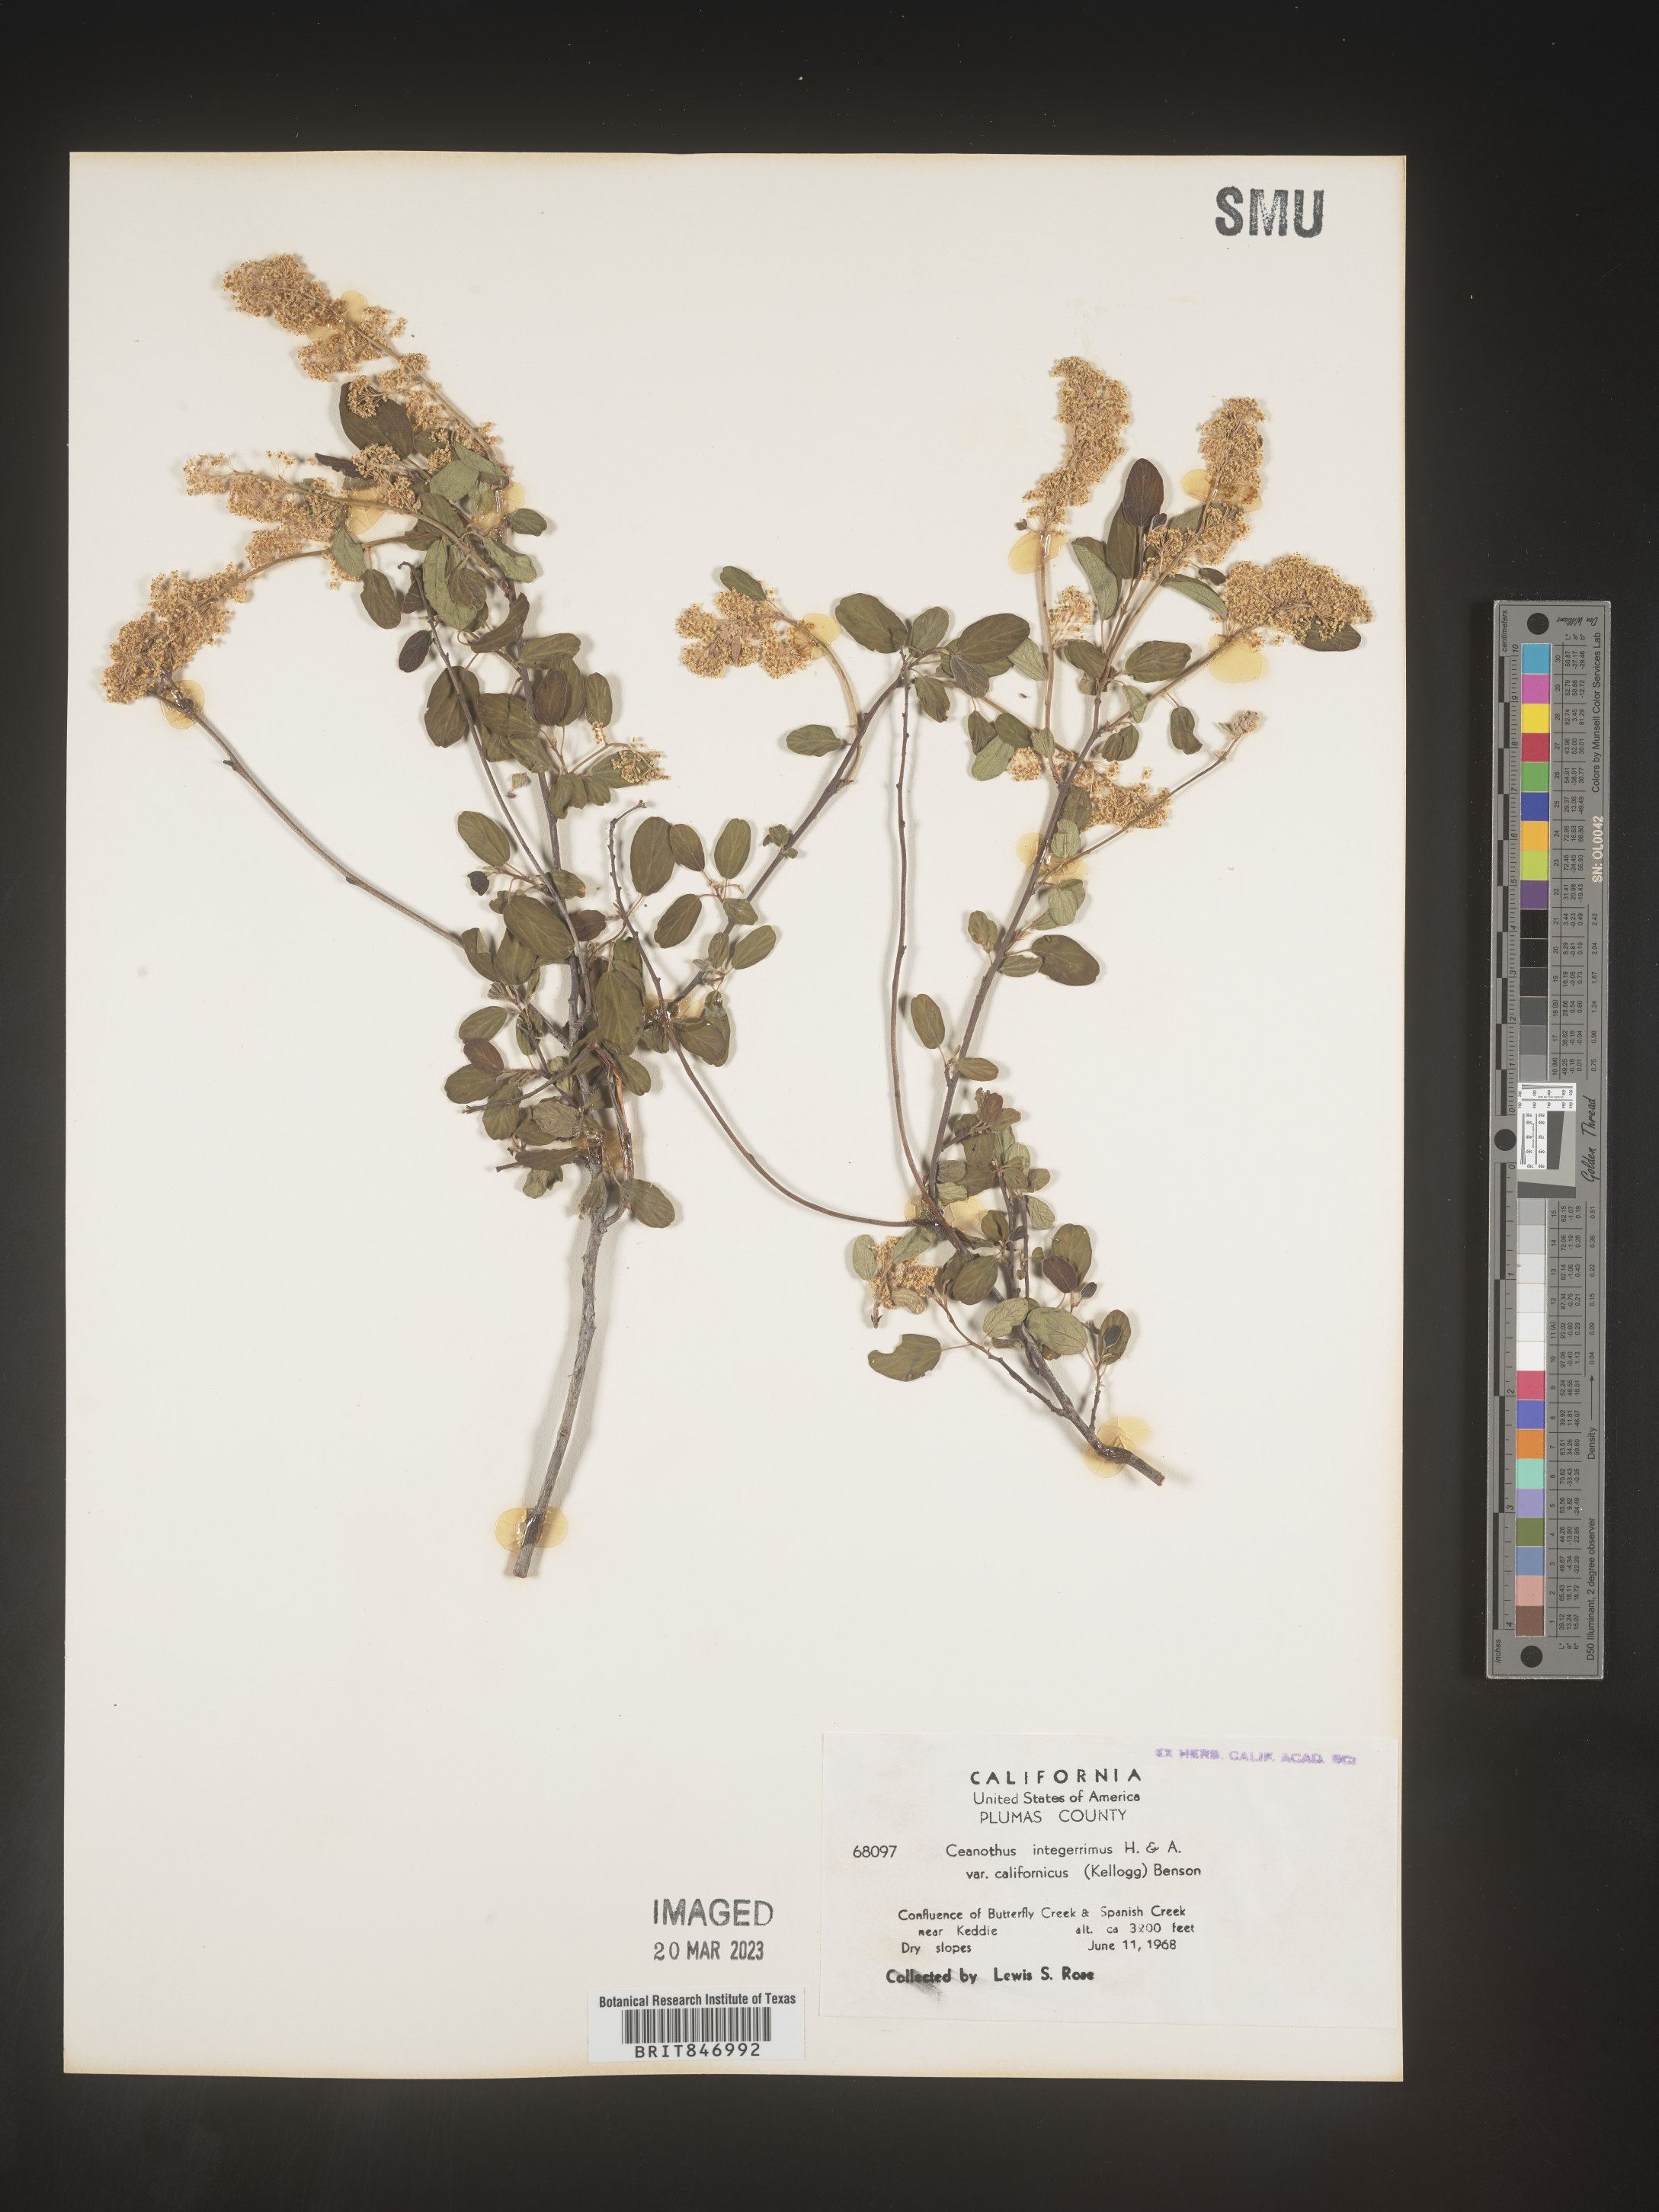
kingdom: Plantae
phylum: Tracheophyta
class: Magnoliopsida
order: Rosales
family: Rhamnaceae
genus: Ceanothus
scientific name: Ceanothus integerrimus
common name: Deerbrush ceanothus
